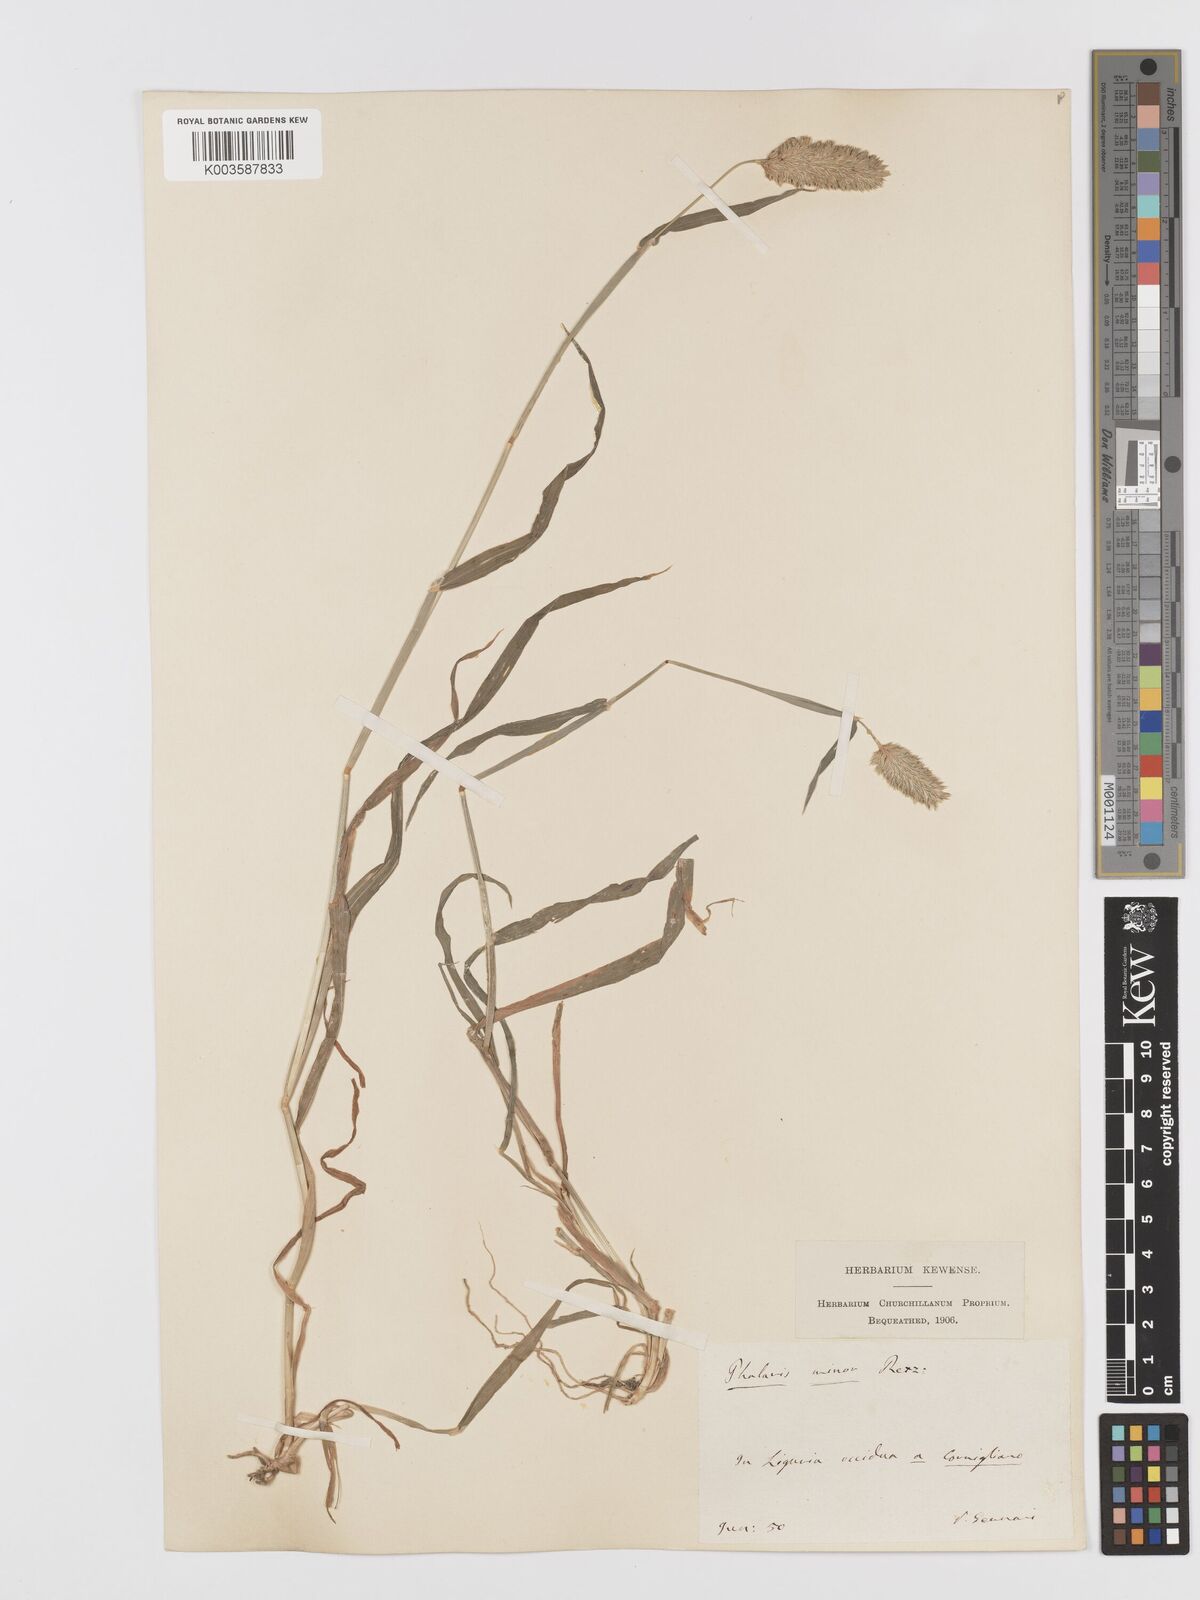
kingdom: Plantae
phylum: Tracheophyta
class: Liliopsida
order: Poales
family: Poaceae
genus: Phalaris
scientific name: Phalaris minor
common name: Littleseed canarygrass
